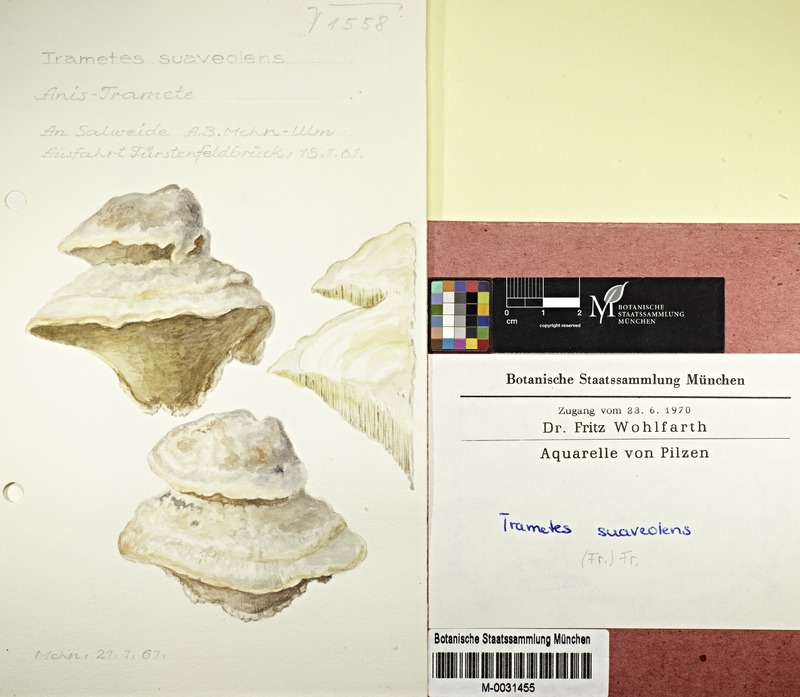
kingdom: Fungi
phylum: Basidiomycota
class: Agaricomycetes
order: Polyporales
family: Polyporaceae
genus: Trametes
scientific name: Trametes suaveolens
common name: Fragrant bracket
